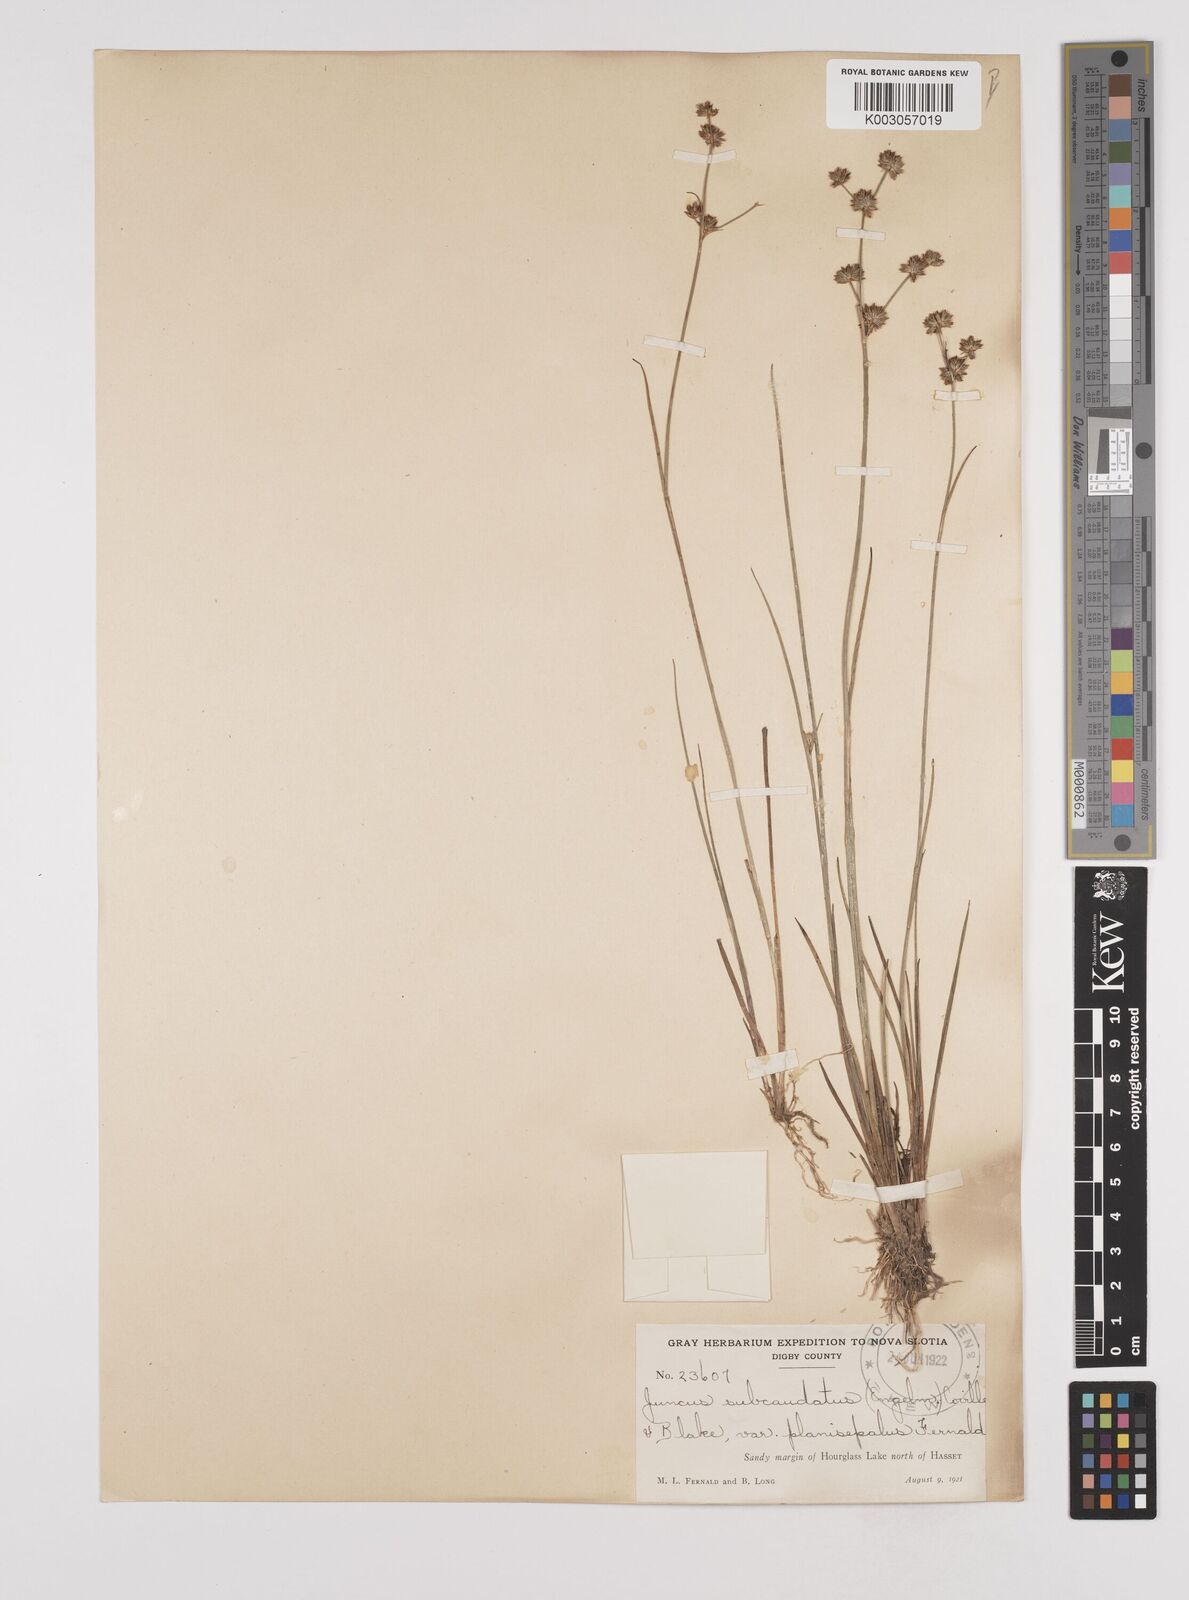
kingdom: Plantae
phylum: Tracheophyta
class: Liliopsida
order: Poales
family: Juncaceae
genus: Juncus
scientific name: Juncus canadensis
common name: Canada rush
